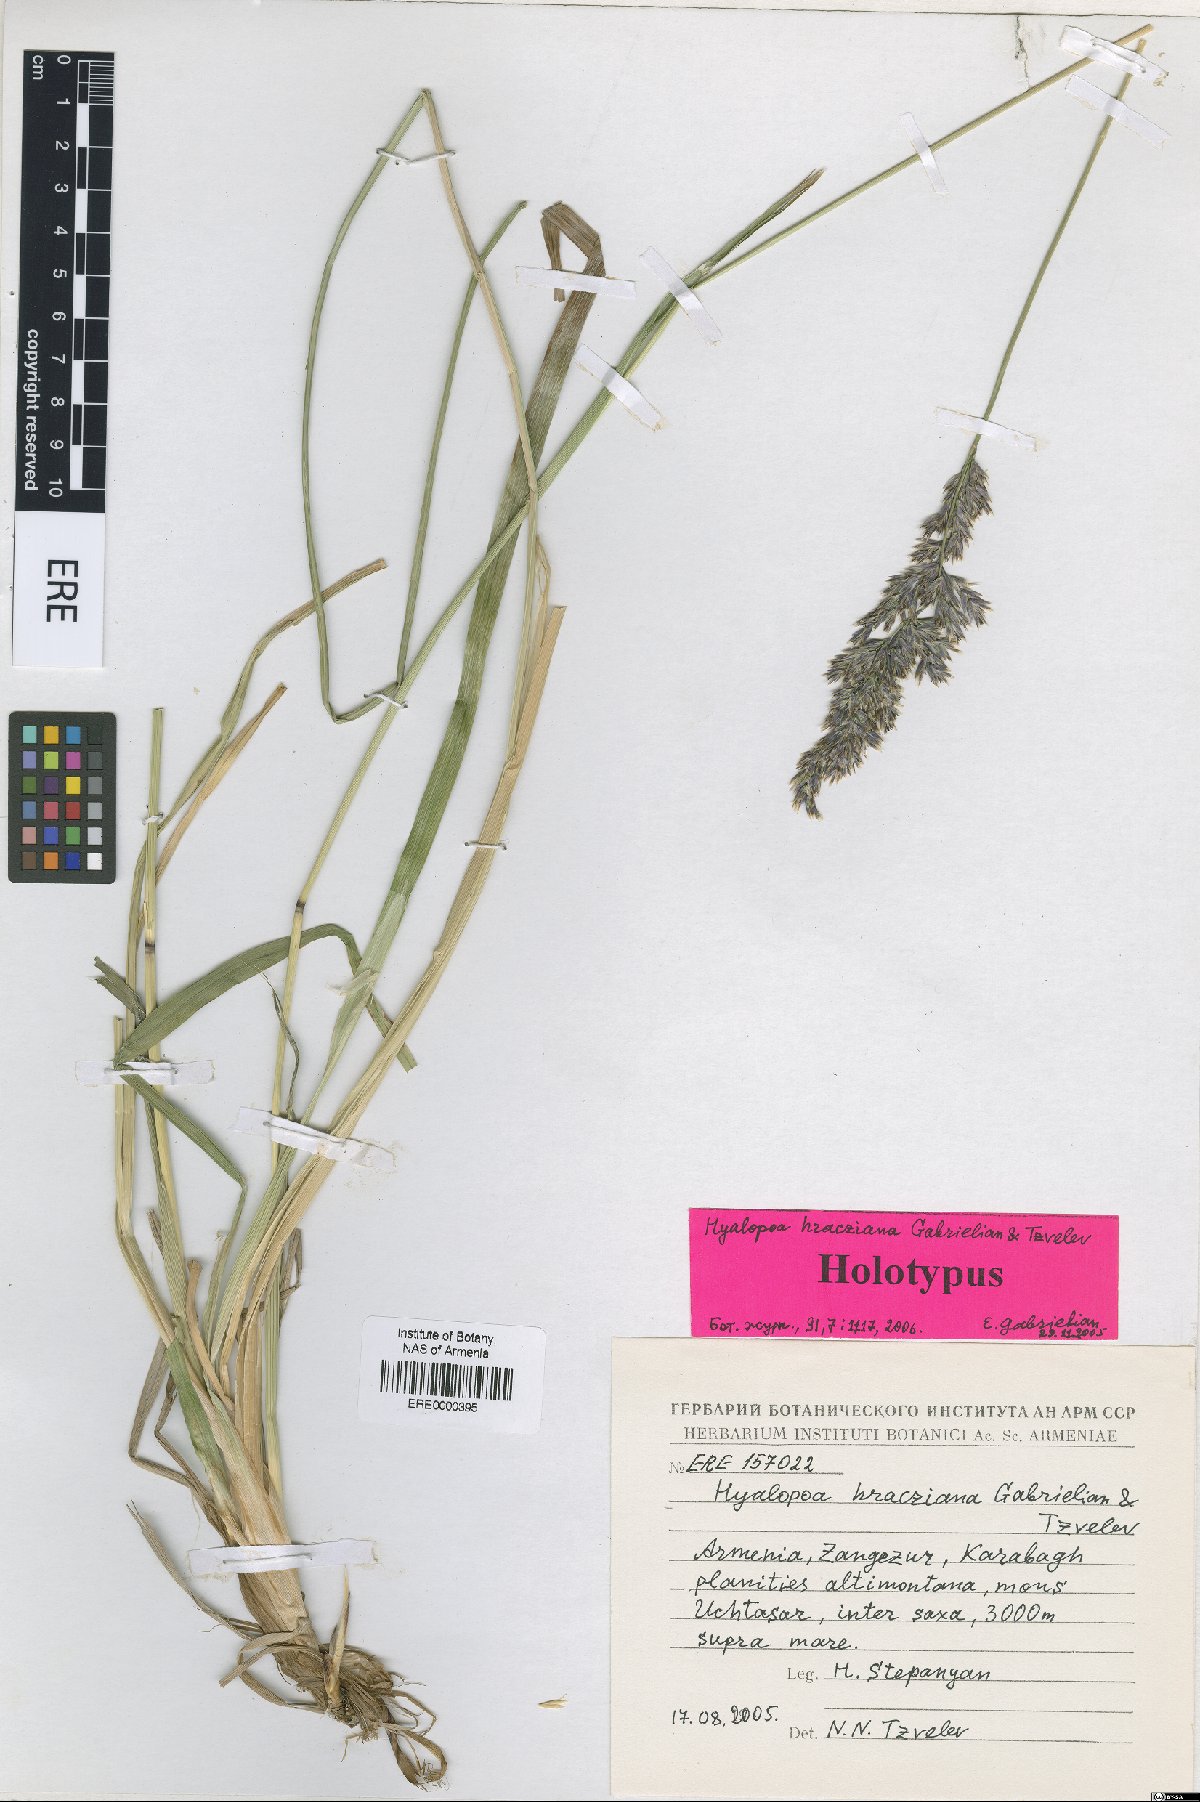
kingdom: Plantae
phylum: Tracheophyta
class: Liliopsida
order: Poales
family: Poaceae
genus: Hyalopoa
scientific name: Hyalopoa hracziana
